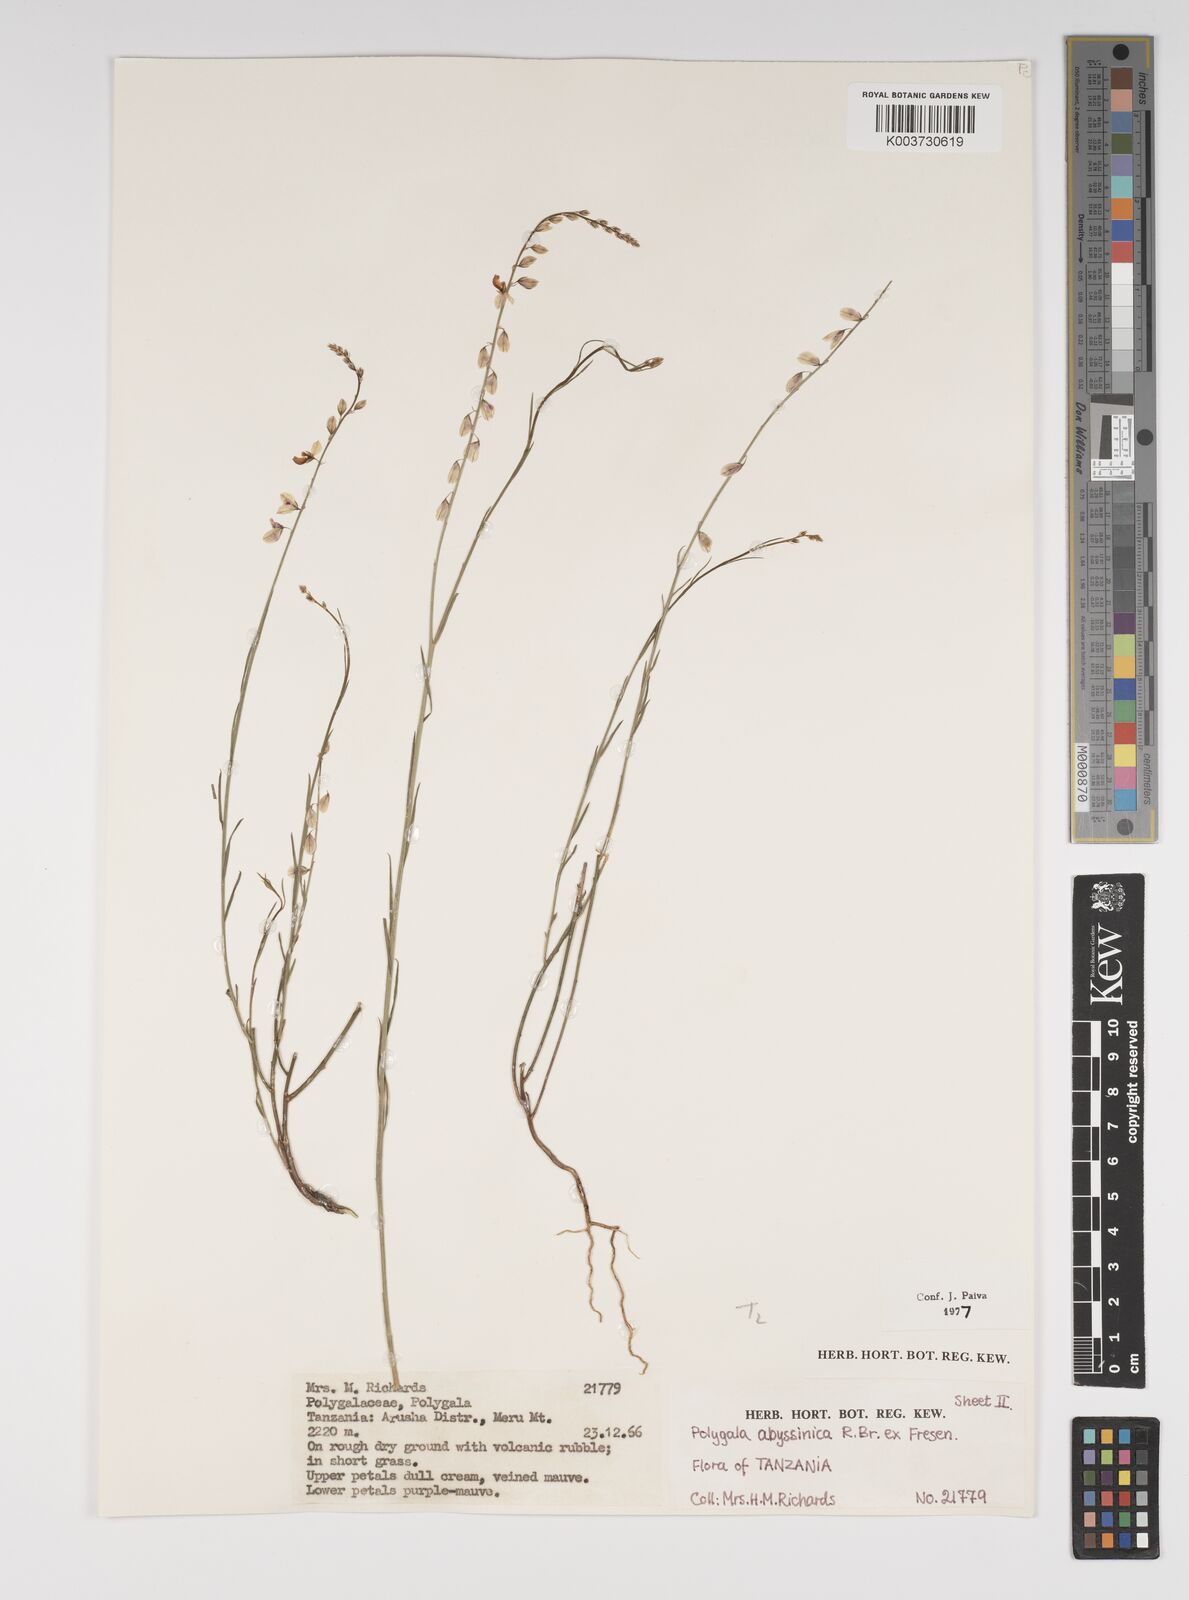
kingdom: Plantae
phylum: Tracheophyta
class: Magnoliopsida
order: Fabales
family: Polygalaceae
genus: Polygala
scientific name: Polygala abyssinica
